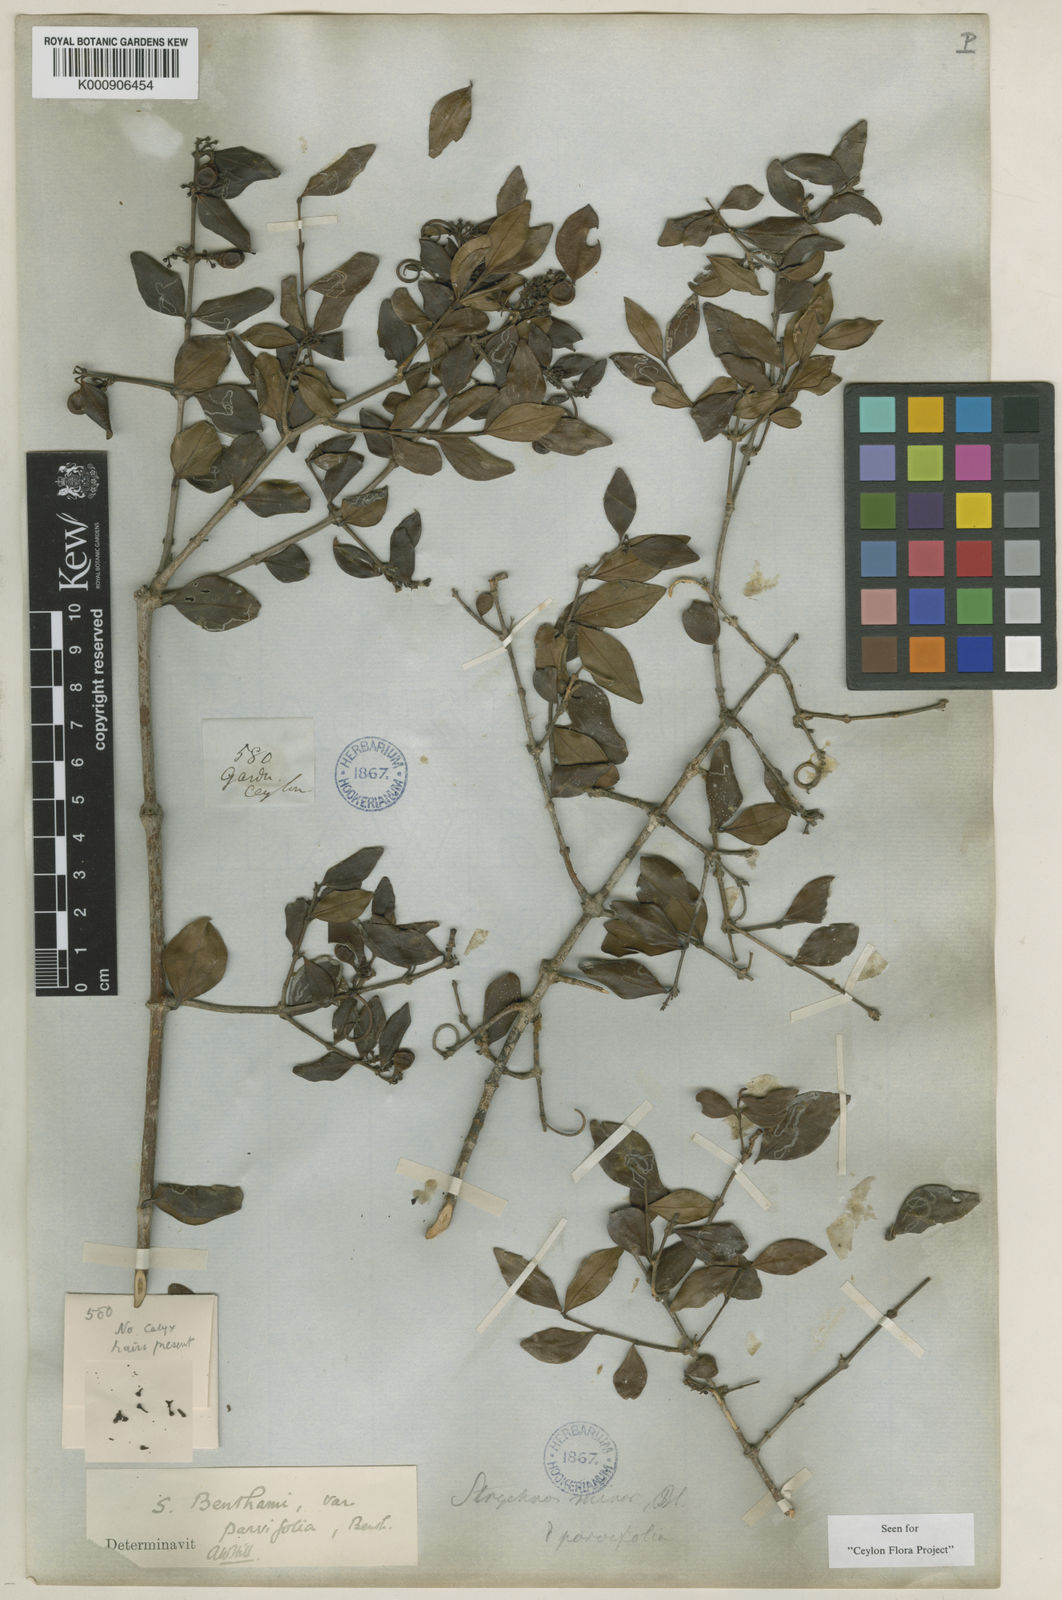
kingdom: Plantae
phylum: Tracheophyta
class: Magnoliopsida
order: Gentianales
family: Loganiaceae
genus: Strychnos
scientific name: Strychnos benthamii
